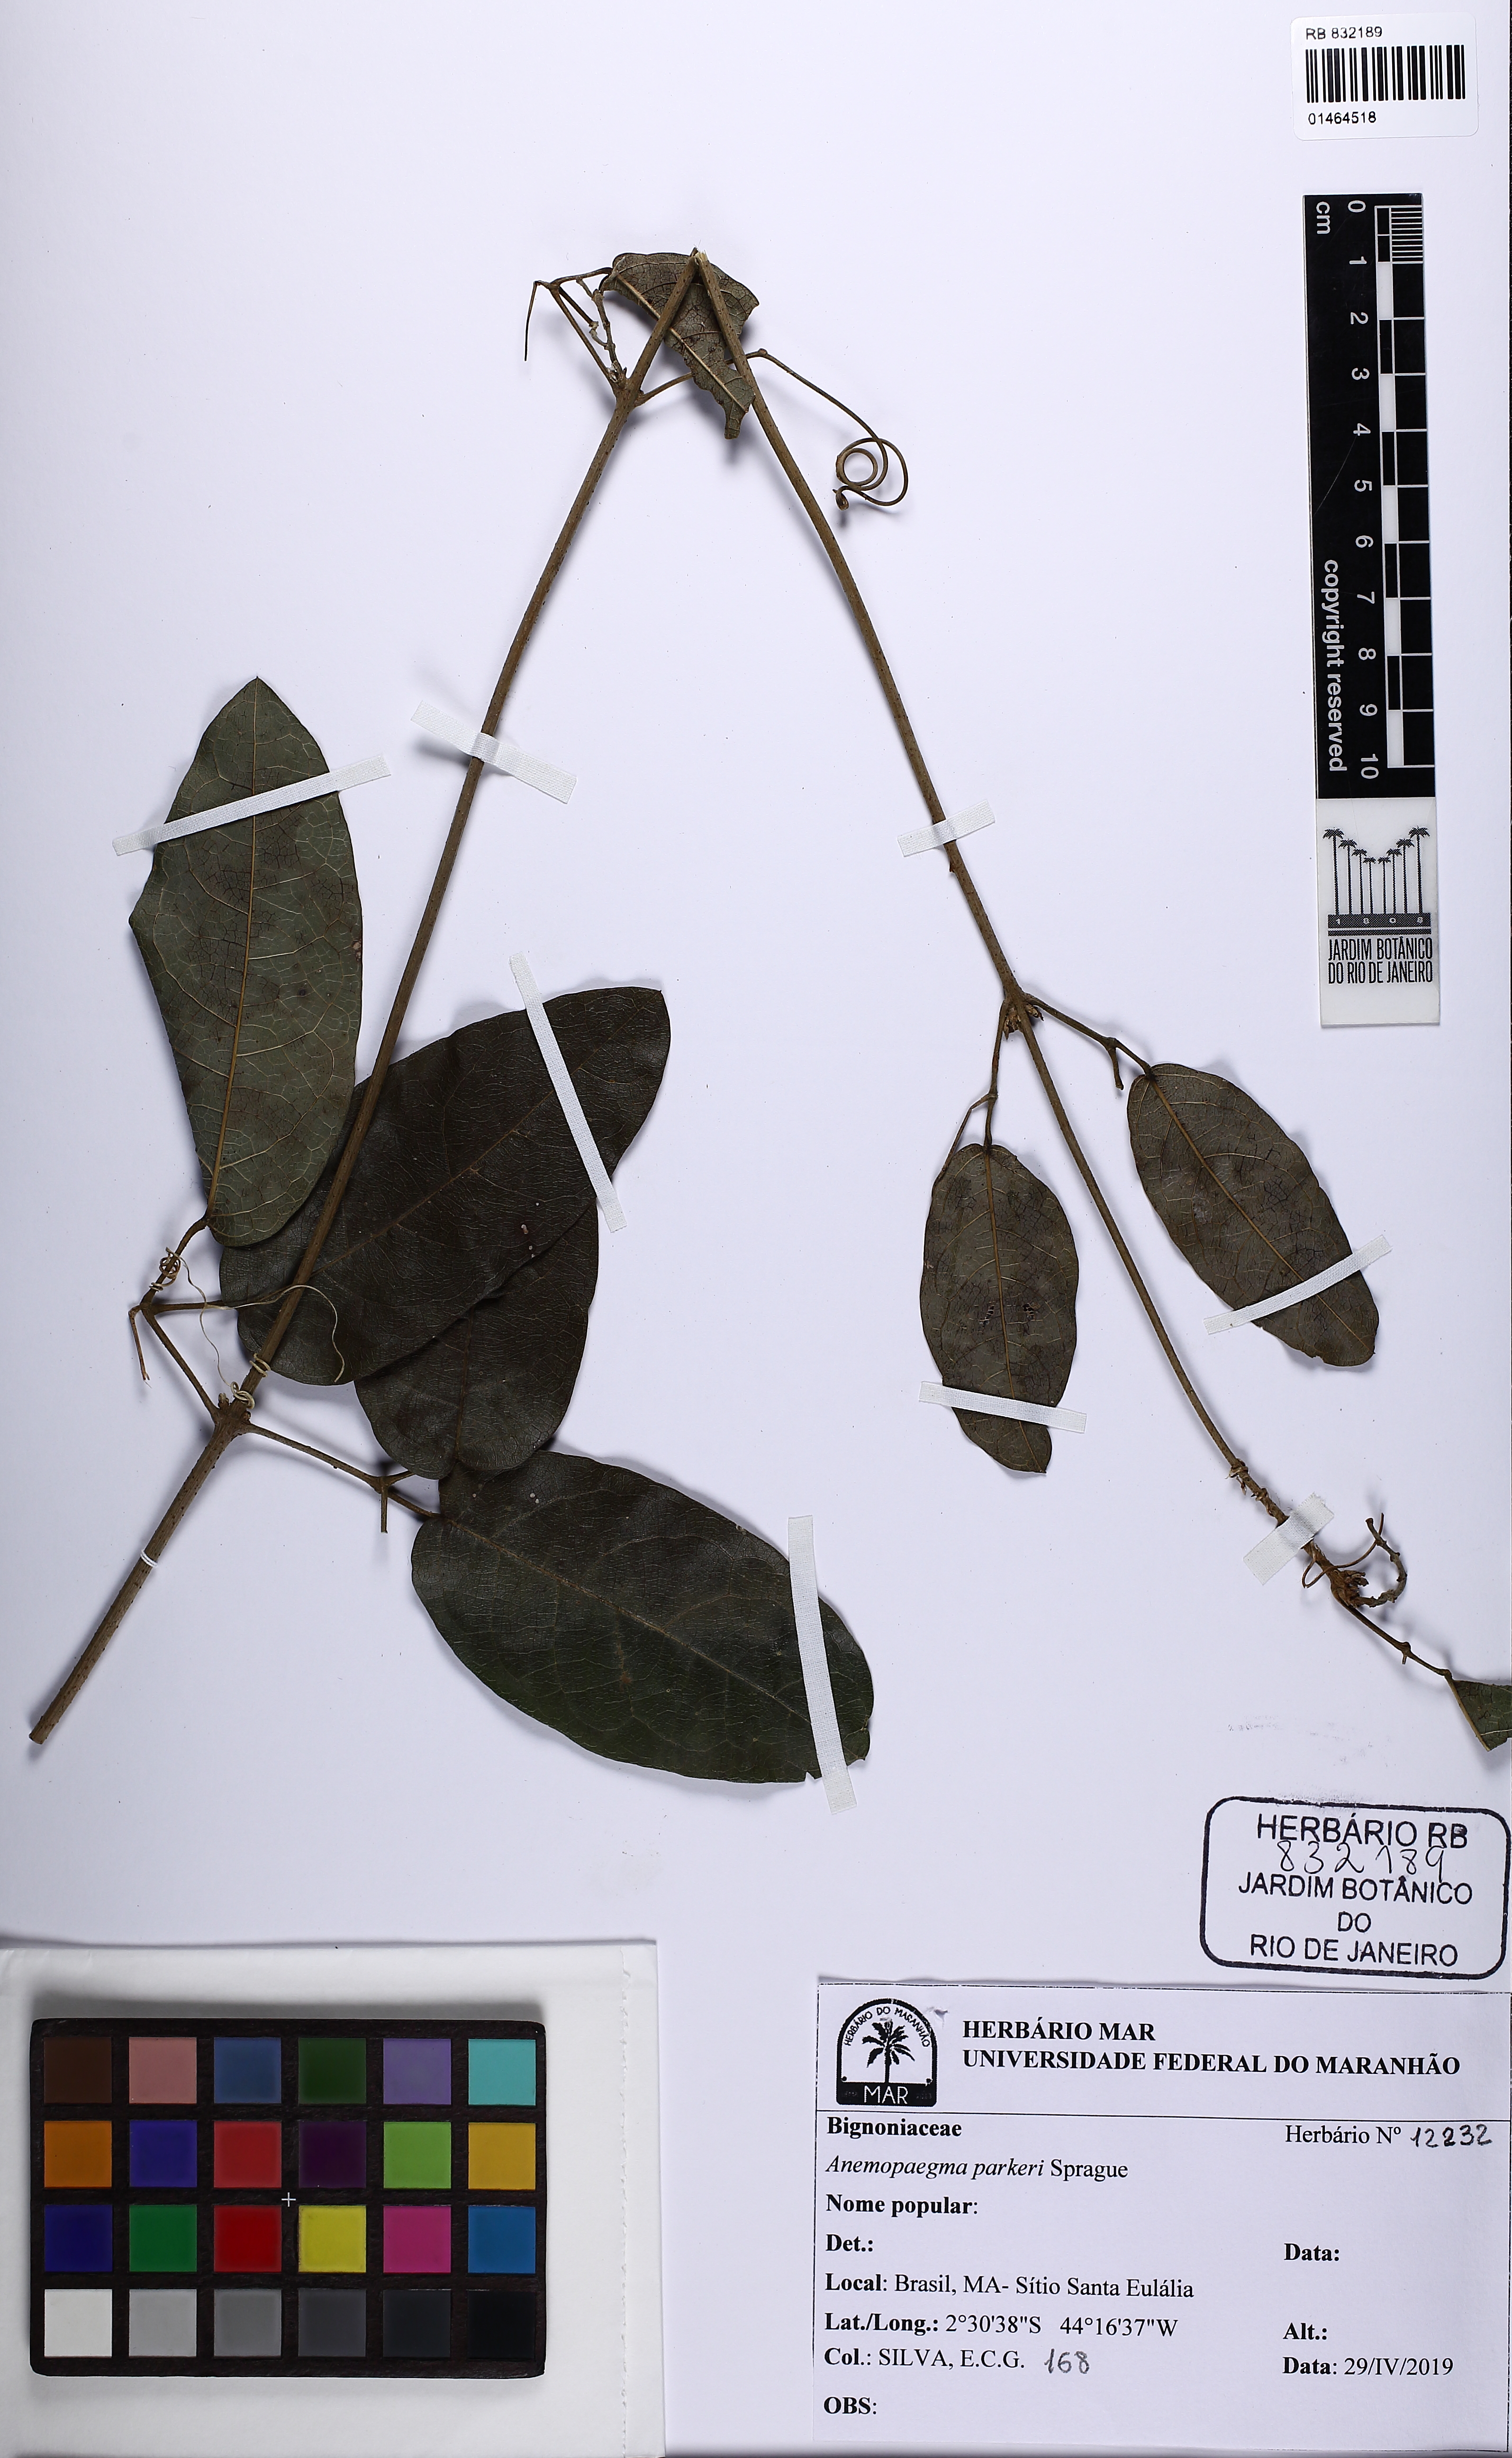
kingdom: Plantae
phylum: Tracheophyta
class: Magnoliopsida
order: Lamiales
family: Bignoniaceae
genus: Anemopaegma
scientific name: Anemopaegma parkeri
